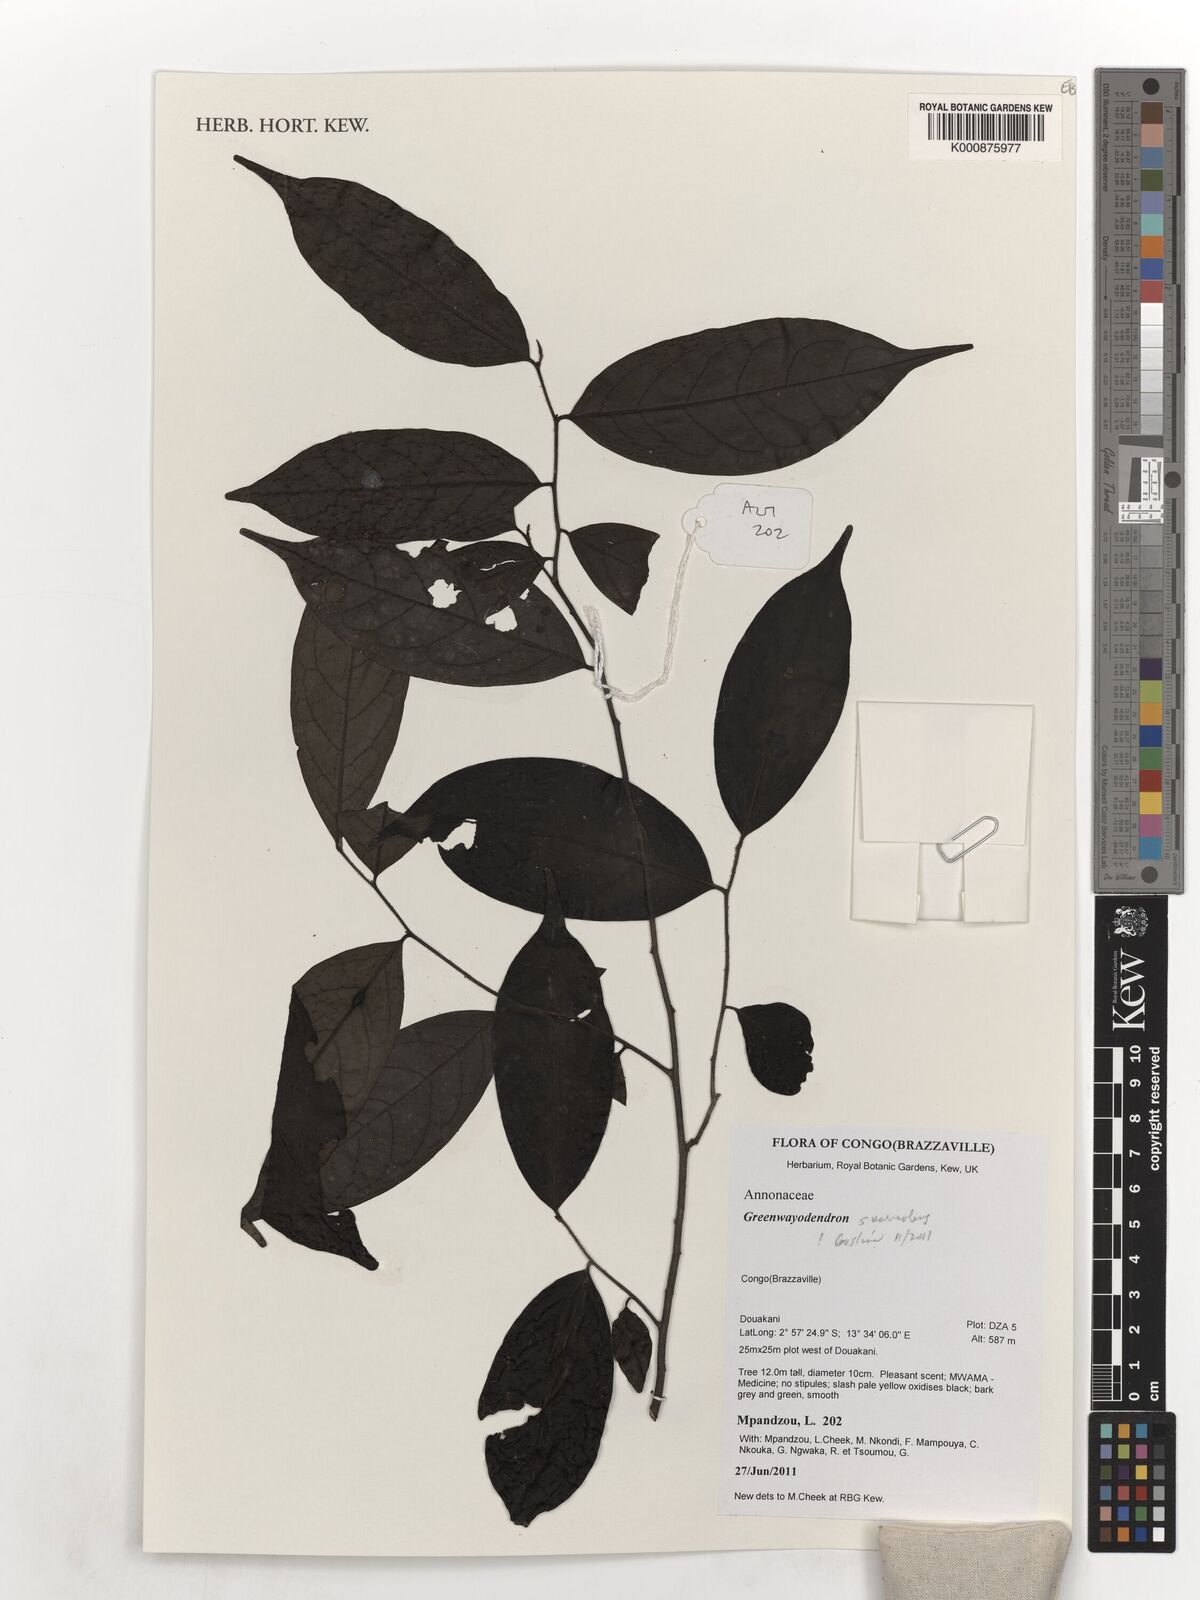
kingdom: Plantae
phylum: Tracheophyta
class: Magnoliopsida
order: Magnoliales
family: Annonaceae
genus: Greenwayodendron
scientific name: Greenwayodendron suaveolens
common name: Molinda
